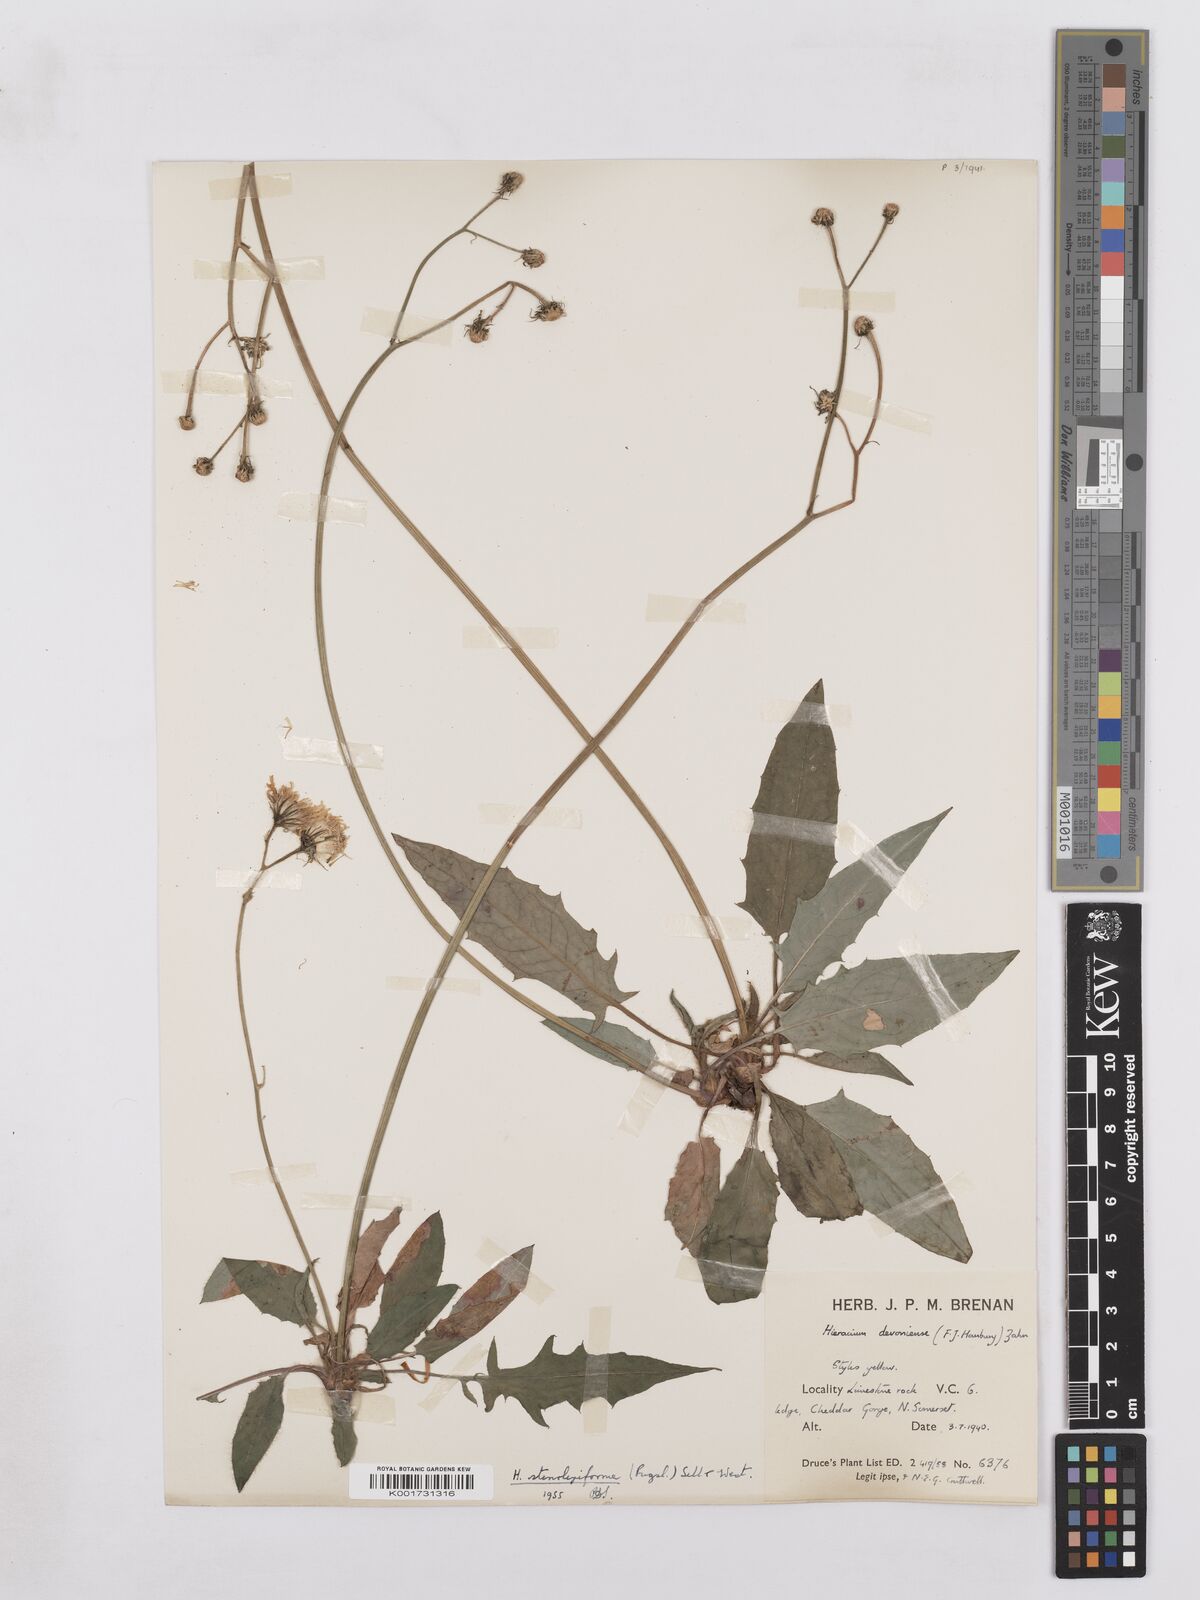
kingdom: Plantae
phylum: Tracheophyta
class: Magnoliopsida
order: Asterales
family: Asteraceae
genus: Hieracium
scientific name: Hieracium hypochoeroides
